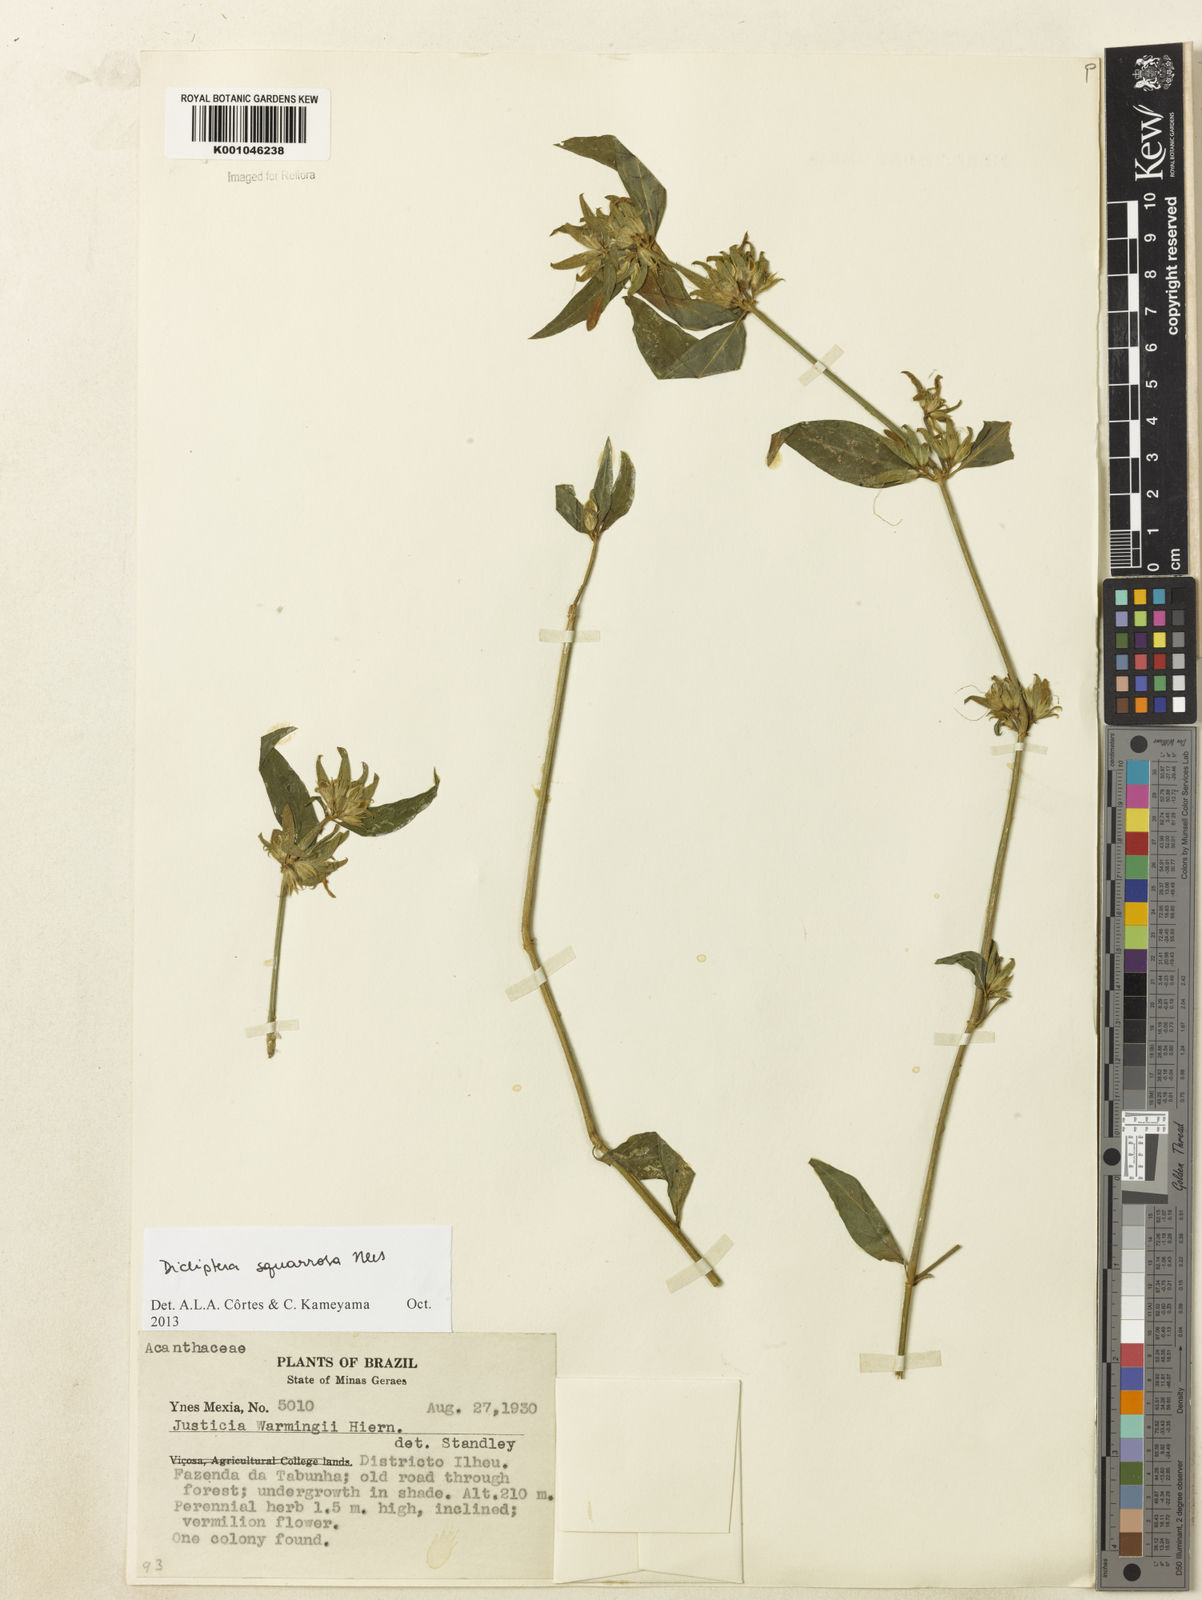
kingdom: Plantae
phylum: Tracheophyta
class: Magnoliopsida
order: Lamiales
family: Acanthaceae
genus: Dicliptera
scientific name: Dicliptera squarrosa
